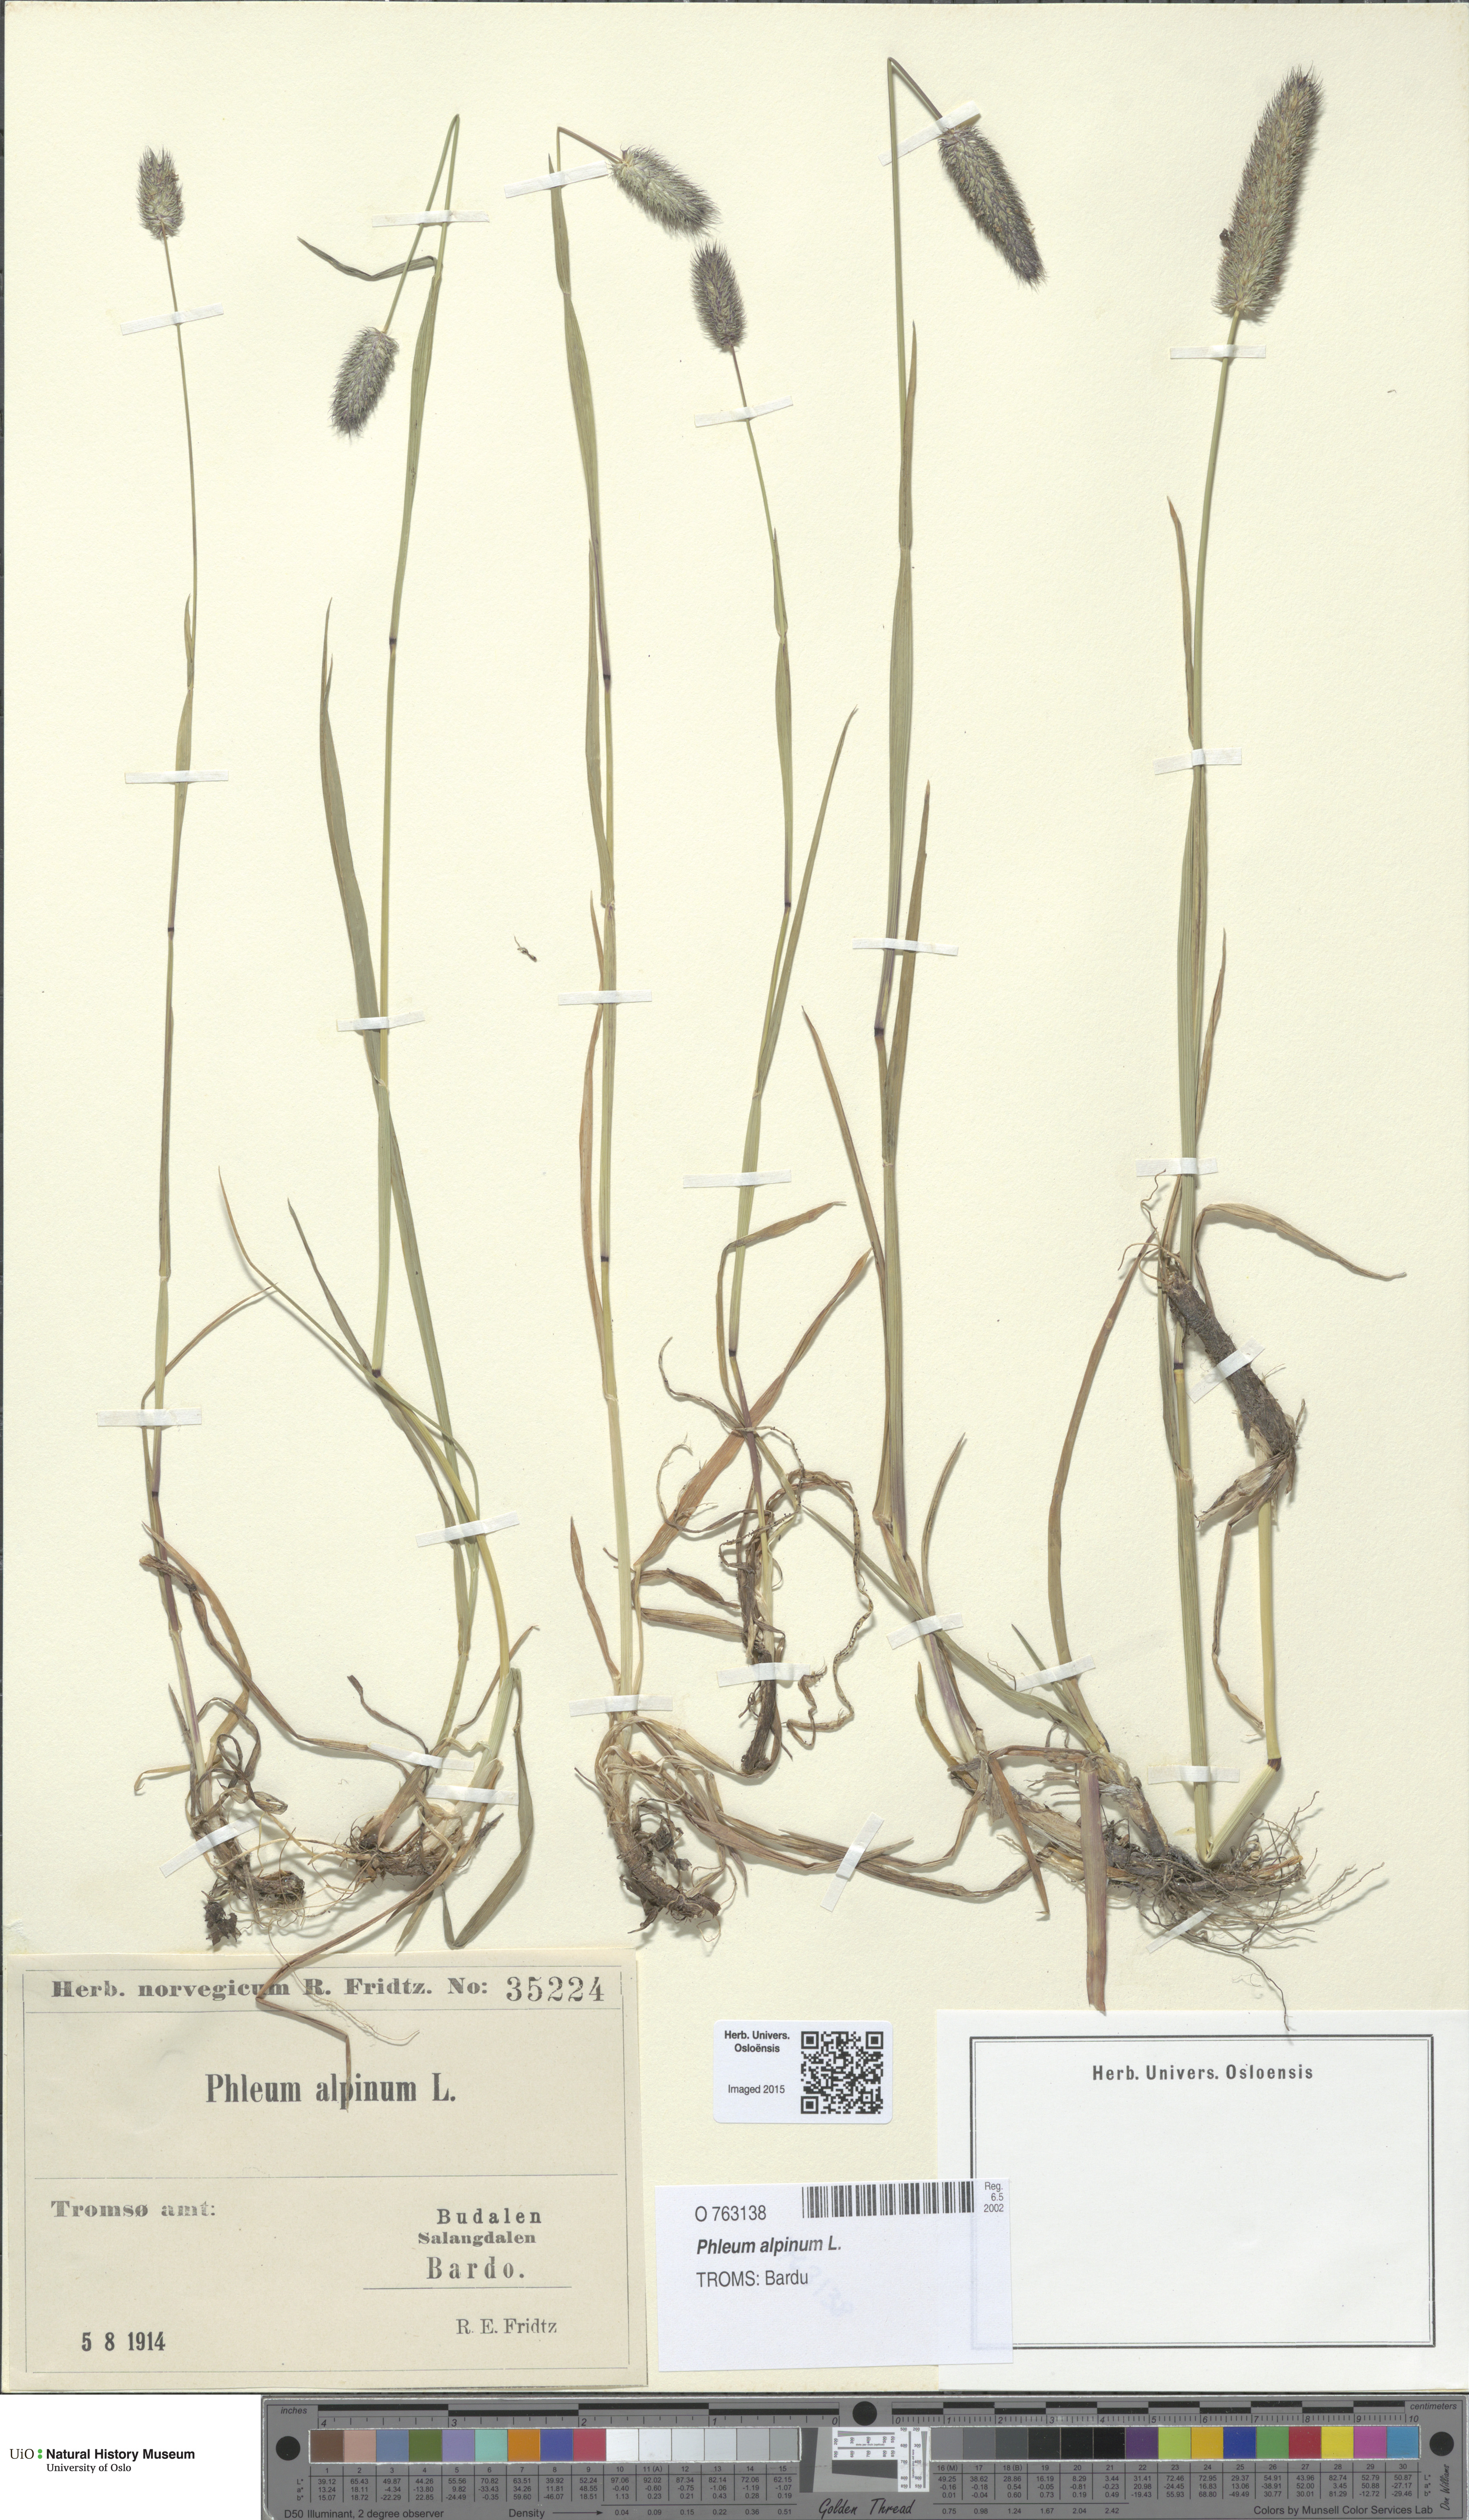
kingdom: Plantae
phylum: Tracheophyta
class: Liliopsida
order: Poales
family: Poaceae
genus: Phleum
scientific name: Phleum alpinum
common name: Alpine cat's-tail
